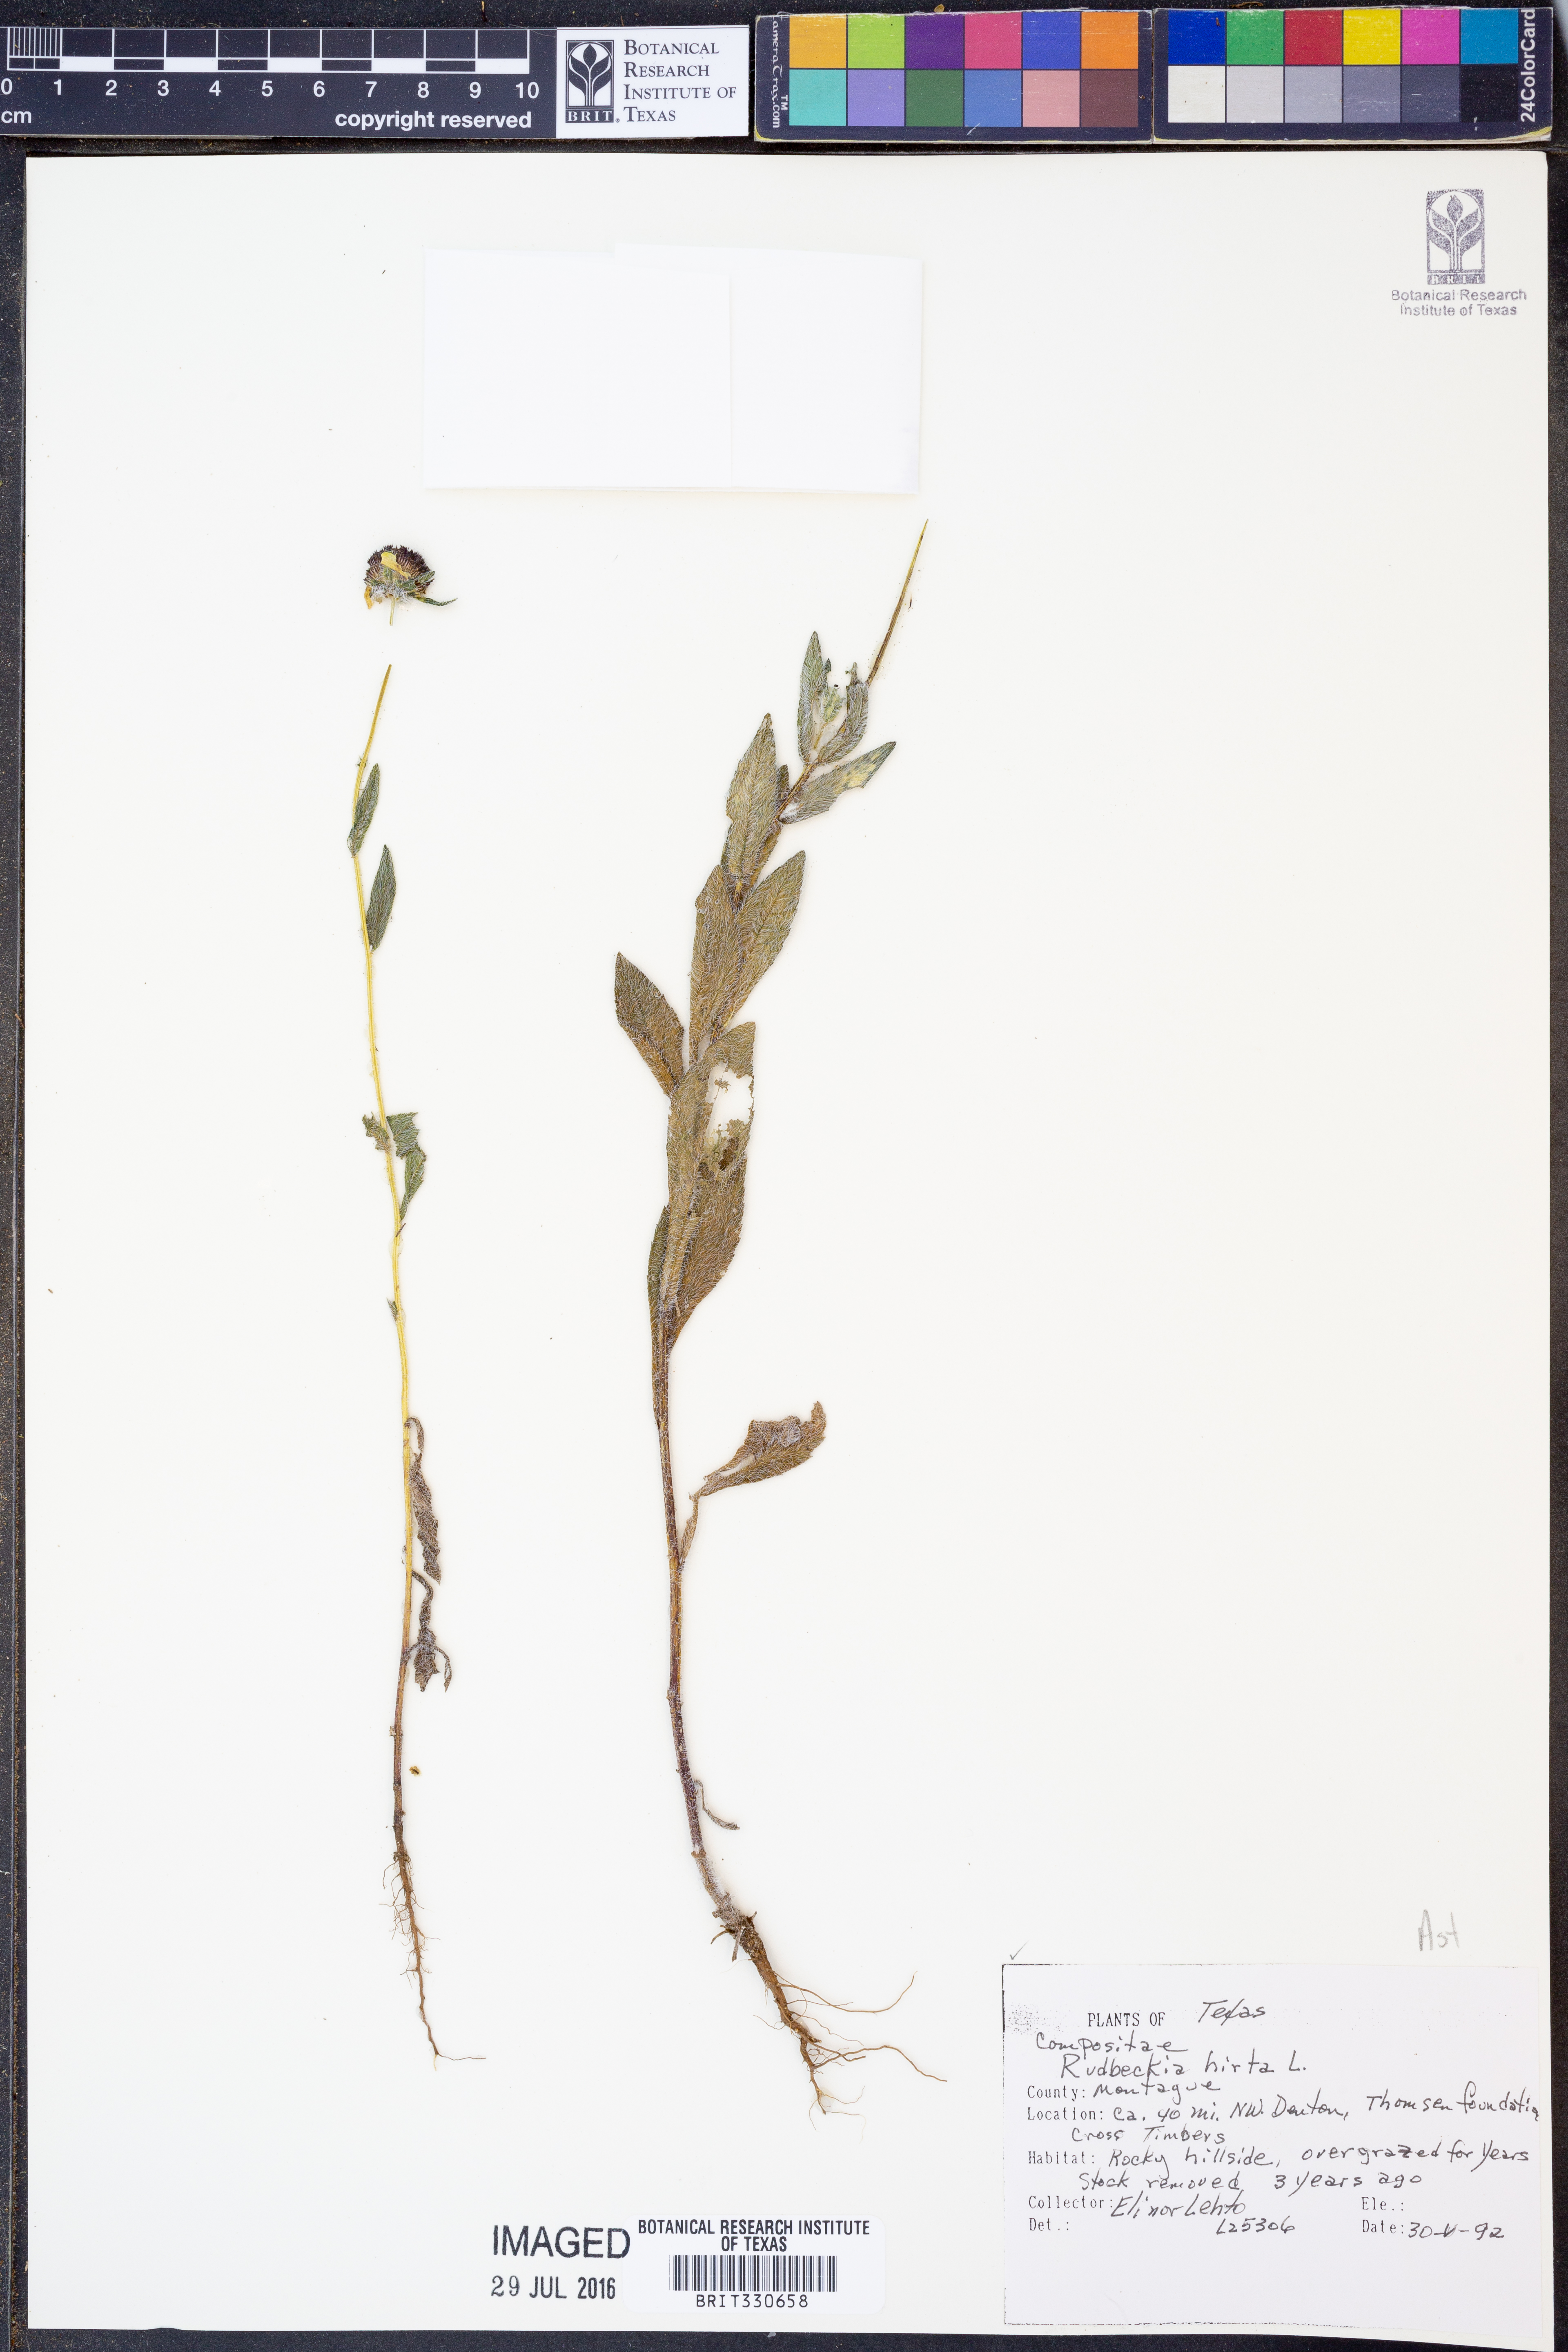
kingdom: Plantae
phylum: Tracheophyta
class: Magnoliopsida
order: Asterales
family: Asteraceae
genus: Rudbeckia
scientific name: Rudbeckia hirta
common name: Black-eyed-susan
